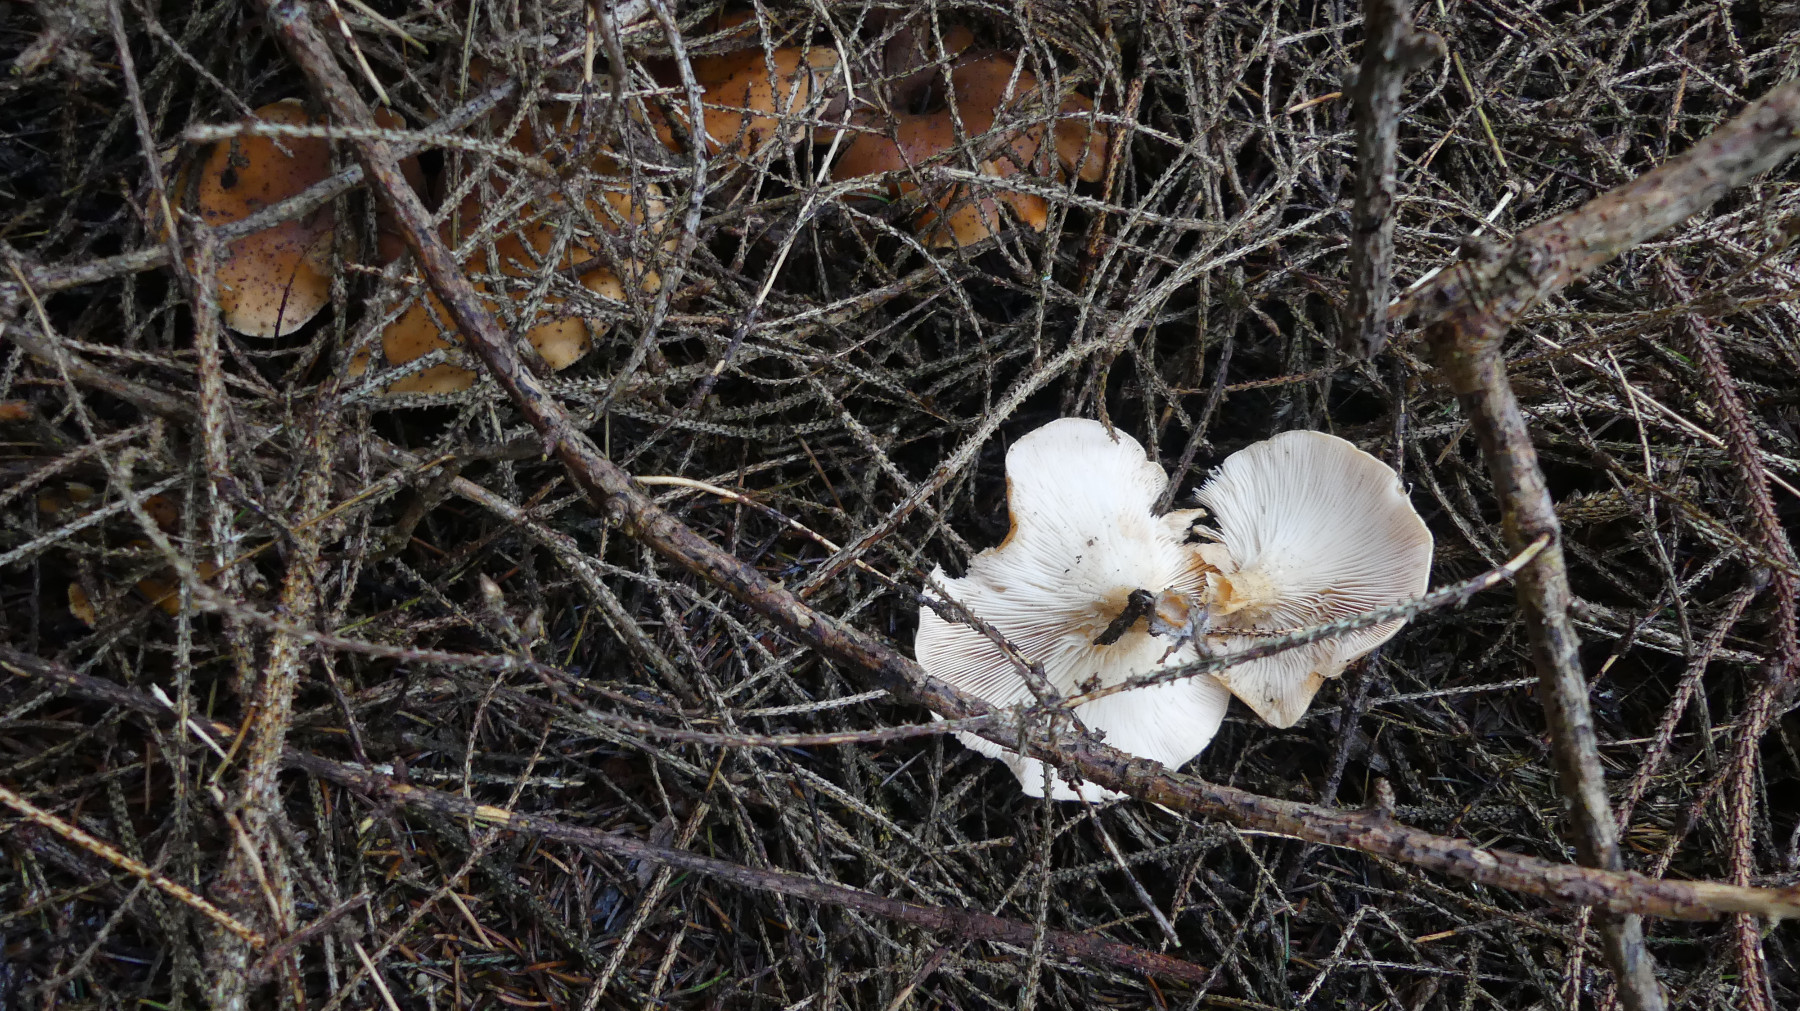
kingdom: Fungi
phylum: Basidiomycota
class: Agaricomycetes
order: Agaricales
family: Tricholomataceae
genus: Paralepista
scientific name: Paralepista flaccida
